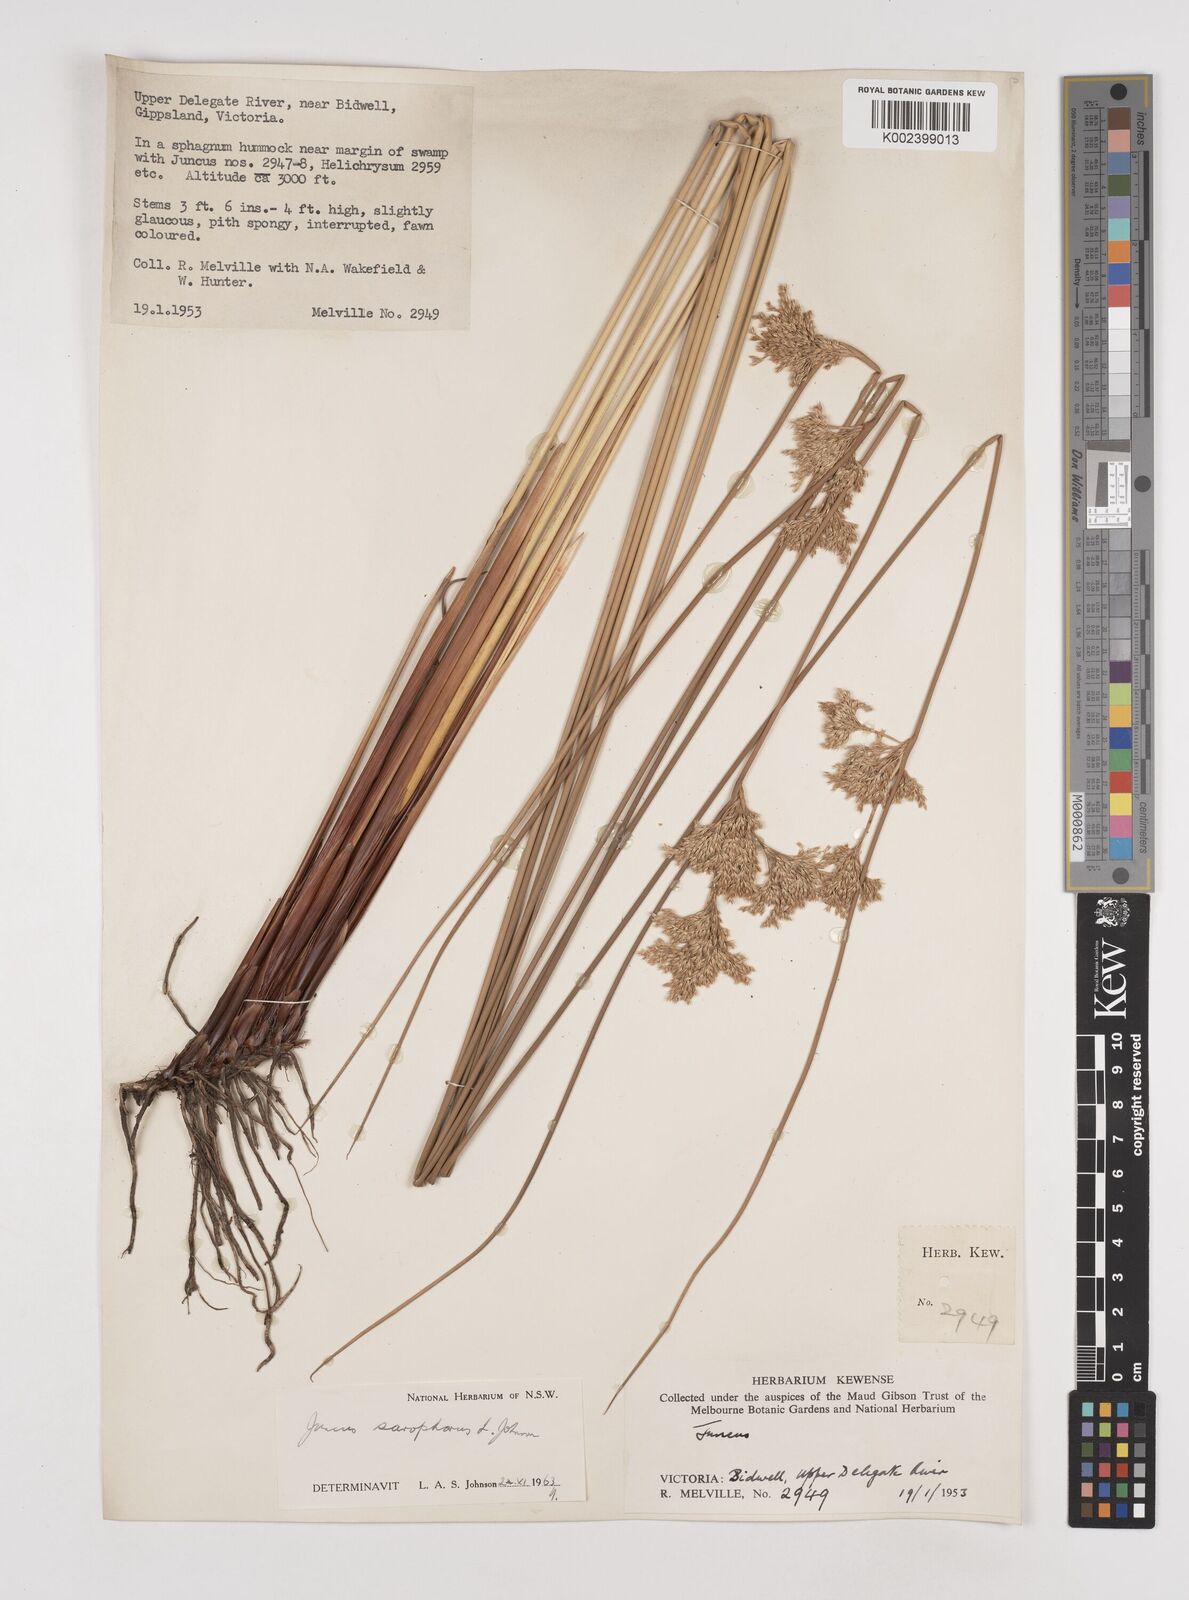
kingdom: Plantae
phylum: Tracheophyta
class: Liliopsida
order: Poales
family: Juncaceae
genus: Juncus
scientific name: Juncus sarophorus
